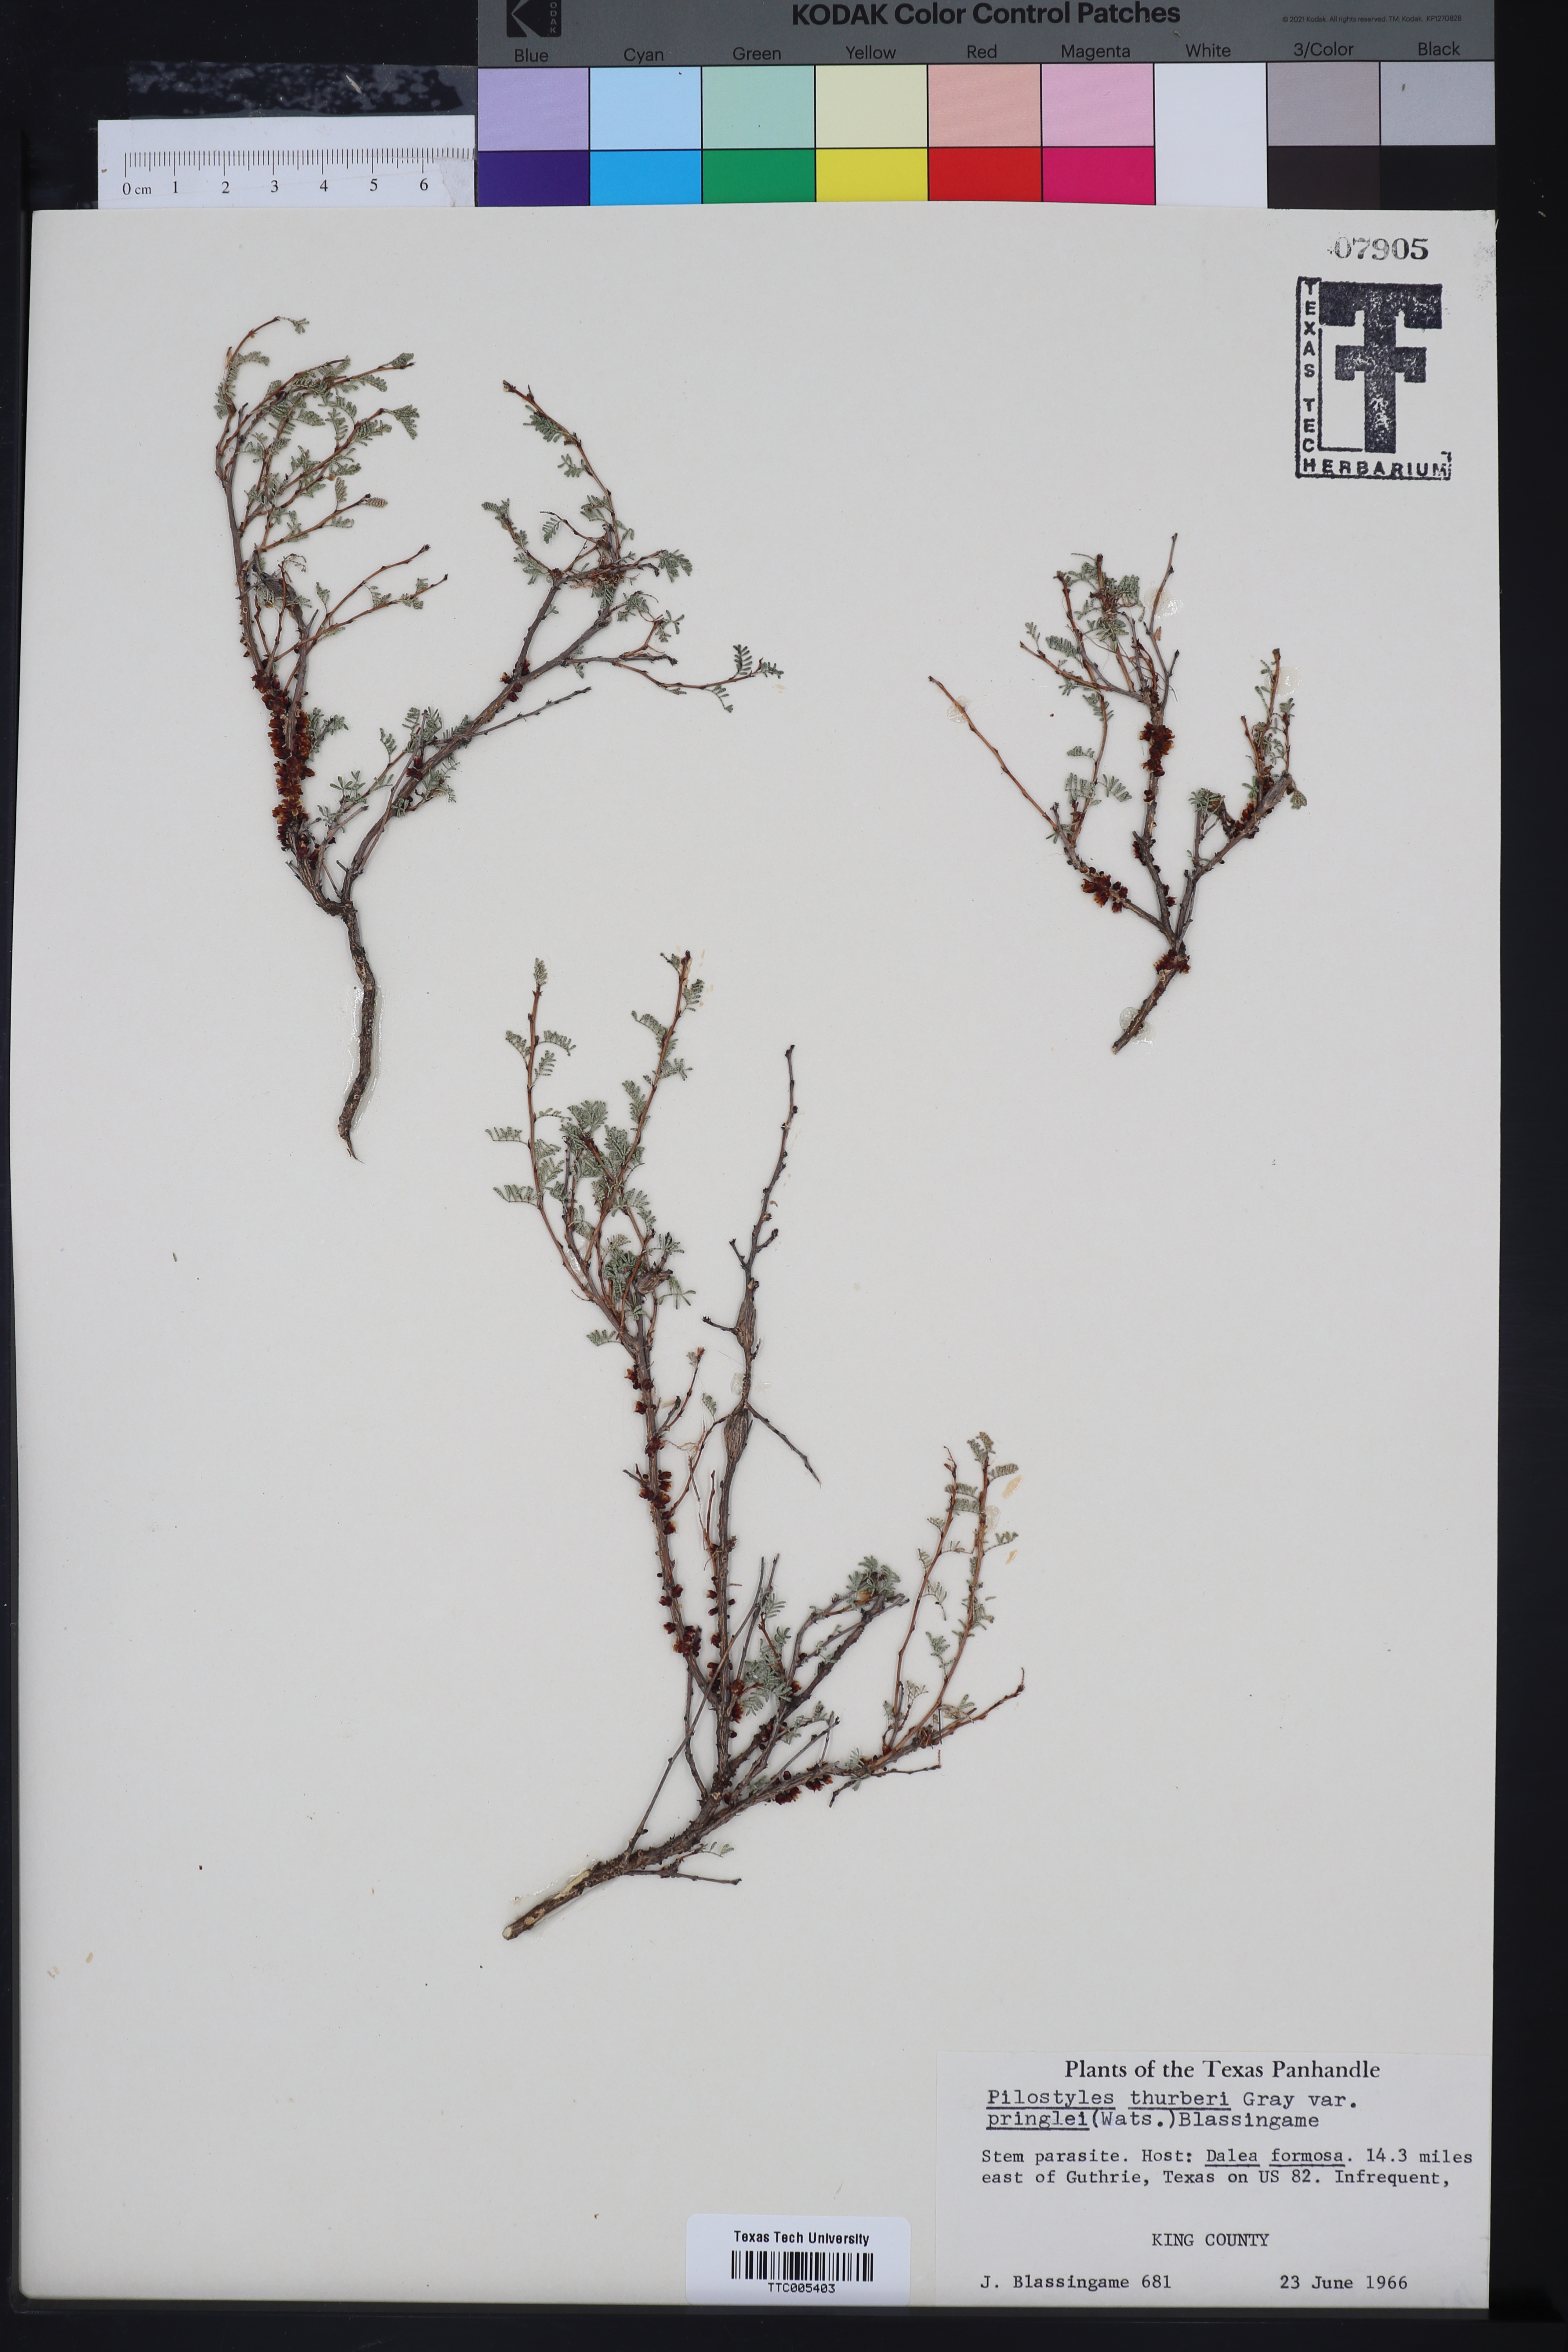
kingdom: Plantae
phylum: Tracheophyta
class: Magnoliopsida
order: Cucurbitales
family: Apodanthaceae
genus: Pilostyles
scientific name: Pilostyles thurberi
